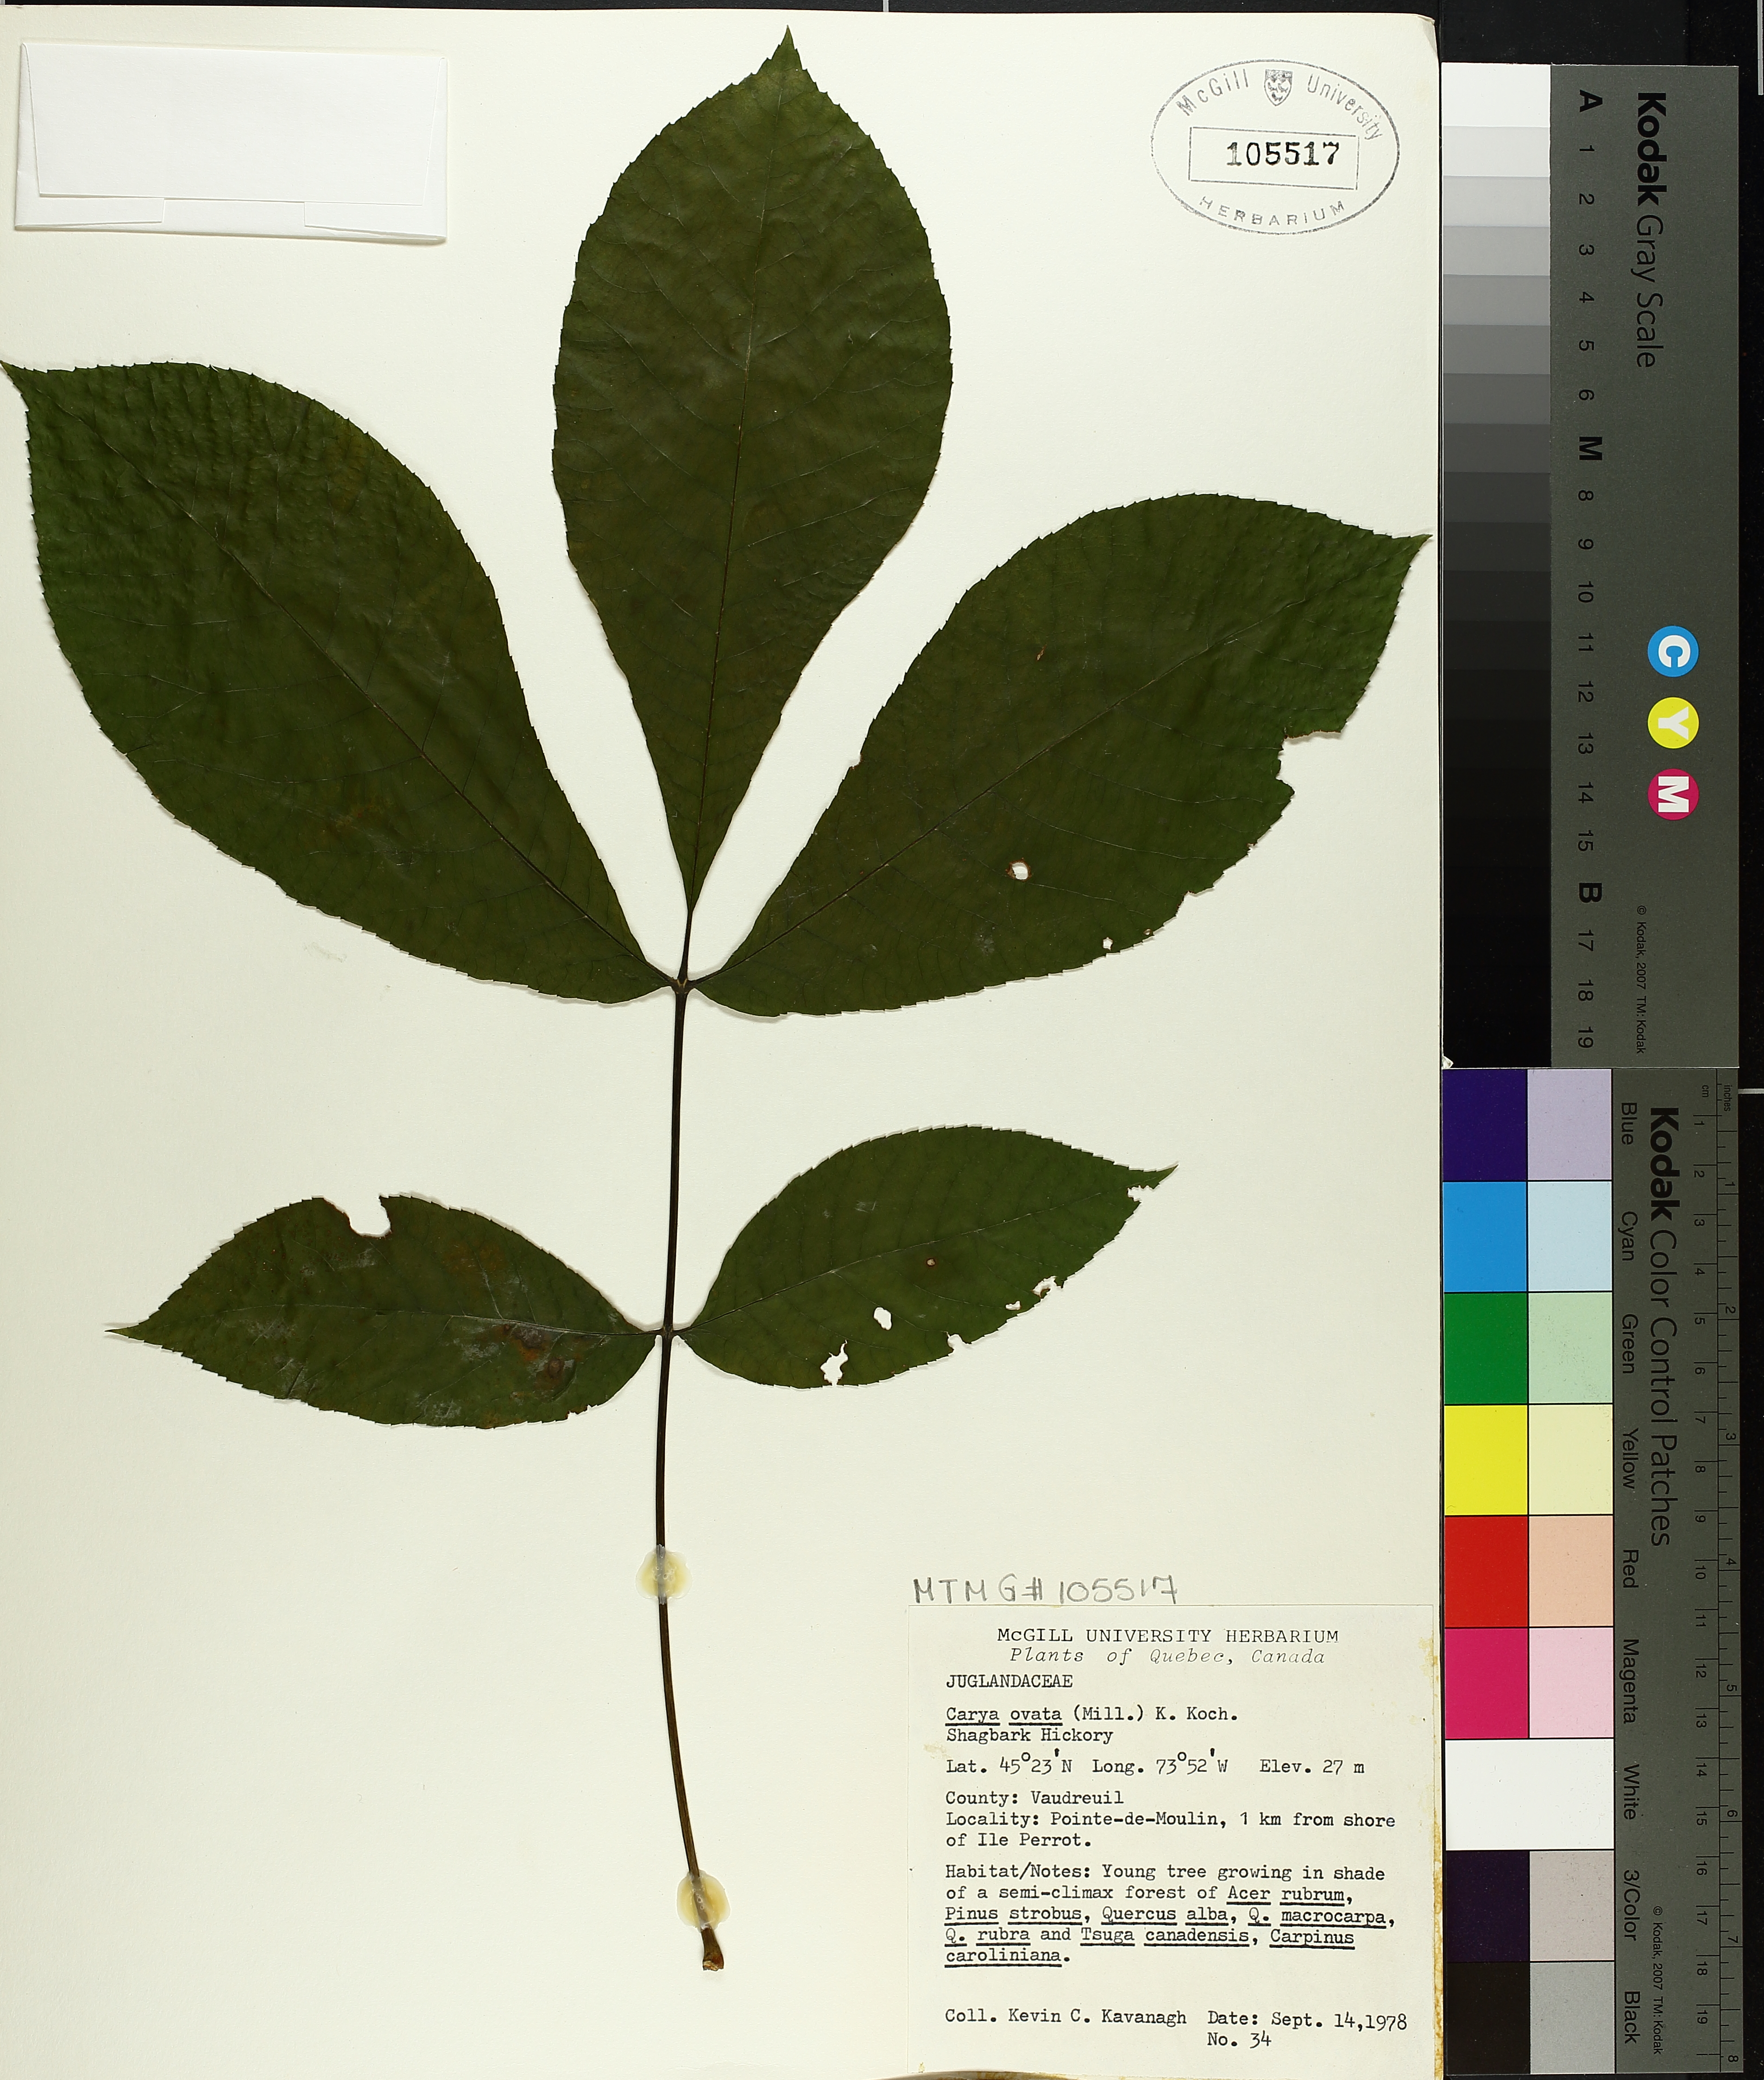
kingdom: Plantae
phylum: Tracheophyta
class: Magnoliopsida
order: Fagales
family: Juglandaceae
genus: Carya
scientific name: Carya ovata
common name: Shagbark hickory
